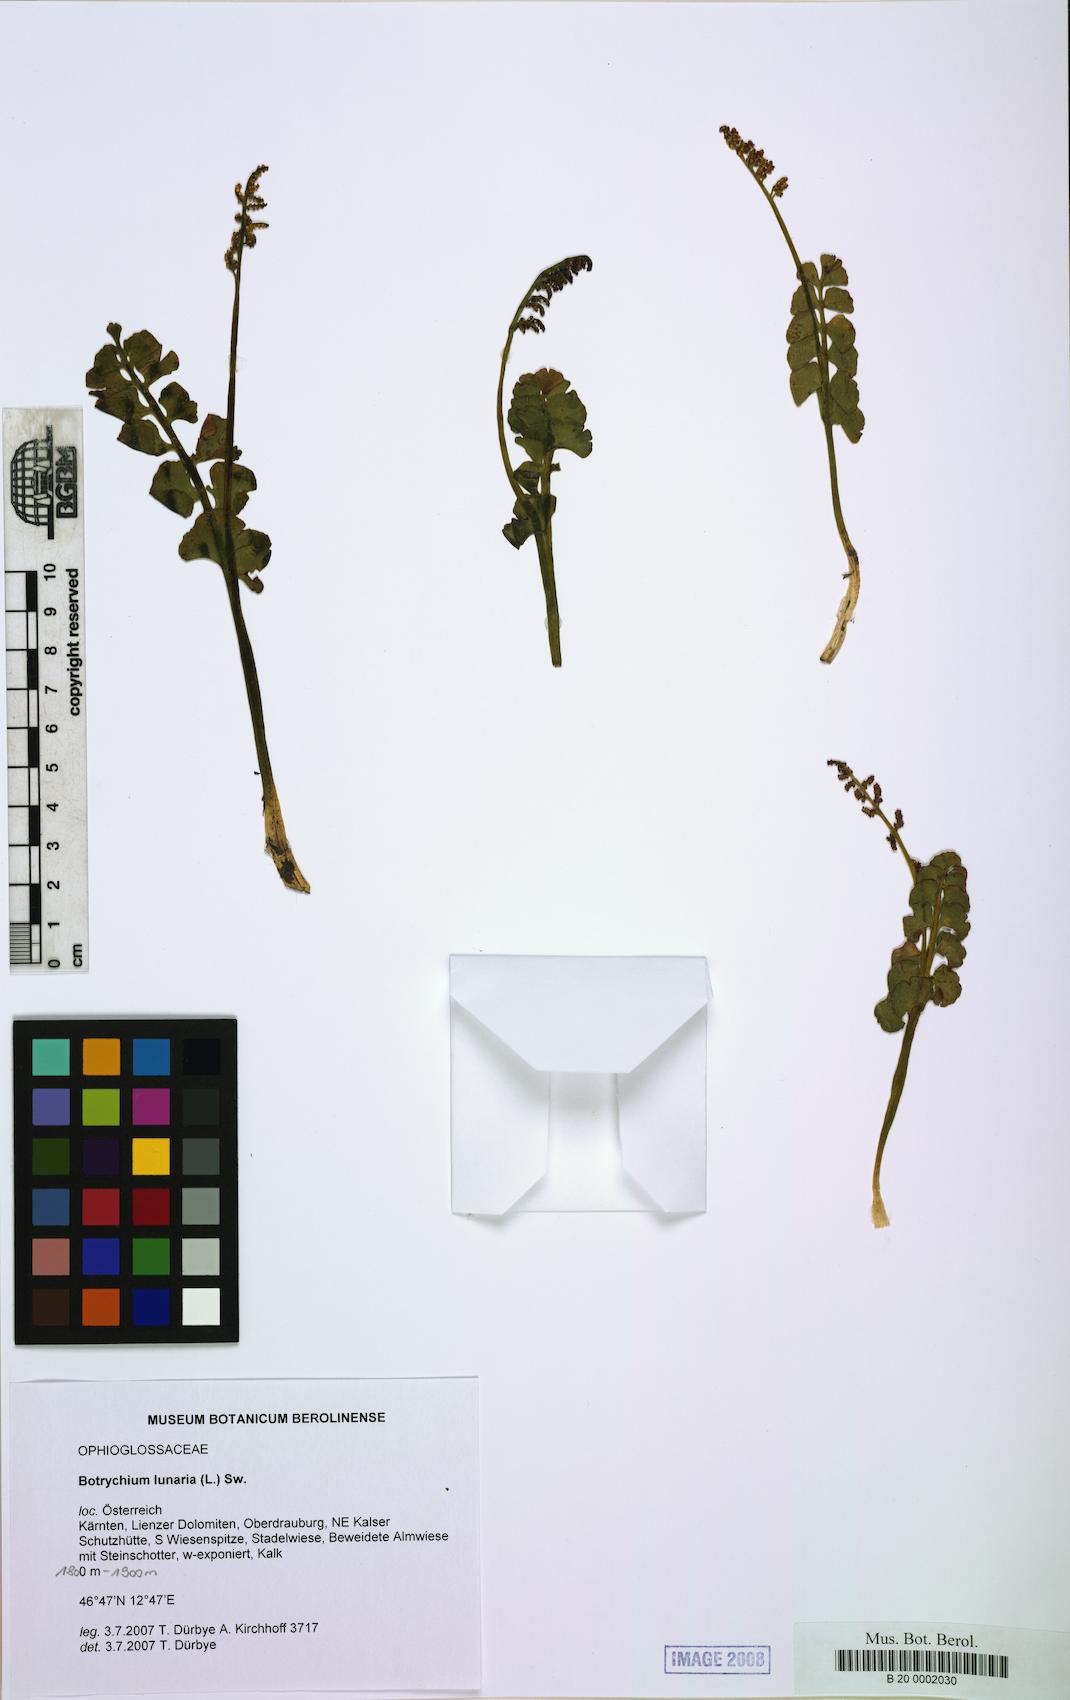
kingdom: Plantae
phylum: Tracheophyta
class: Polypodiopsida
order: Ophioglossales
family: Ophioglossaceae
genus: Botrychium
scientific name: Botrychium lunaria
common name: Moonwort
